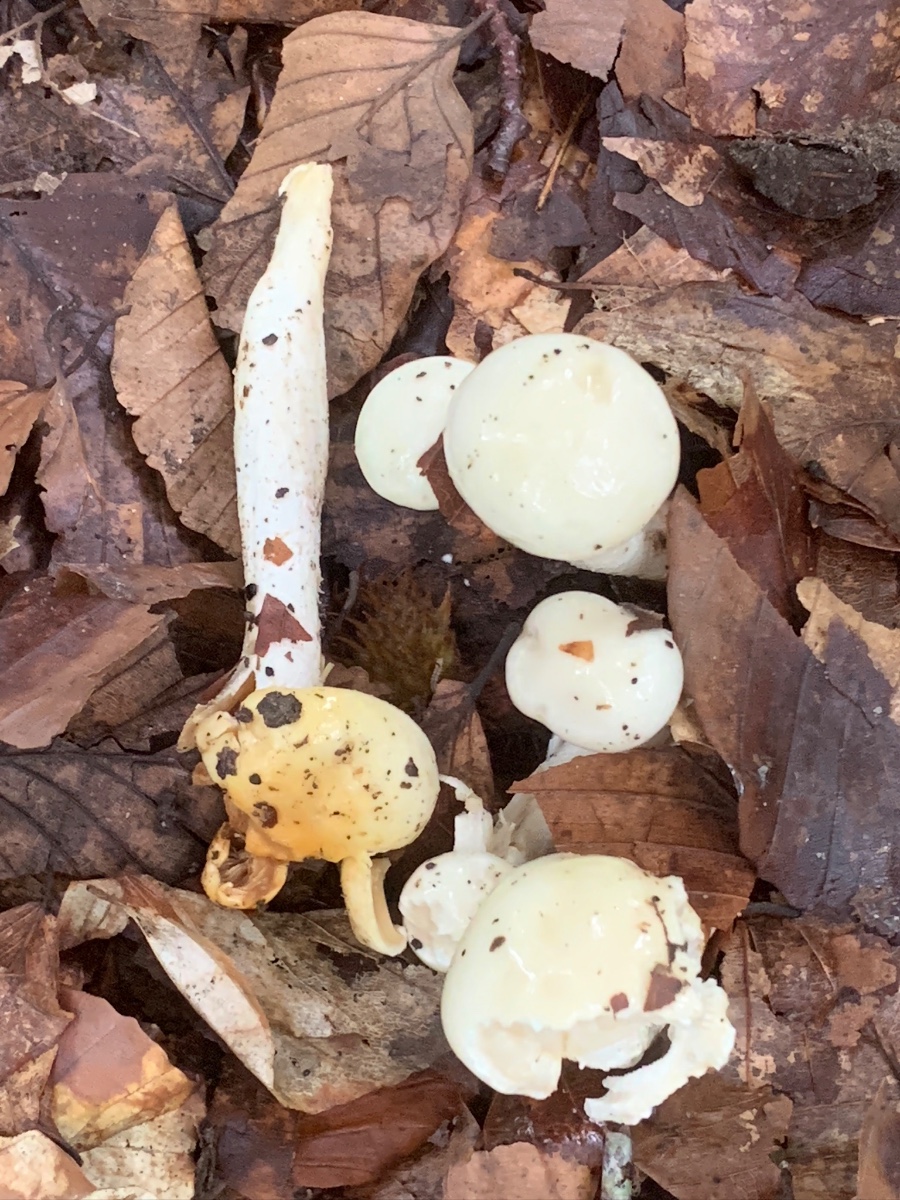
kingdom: Fungi
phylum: Basidiomycota
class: Agaricomycetes
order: Agaricales
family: Hygrophoraceae
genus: Hygrophorus
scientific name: Hygrophorus discoxanthus
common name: ildelugtende sneglehat
